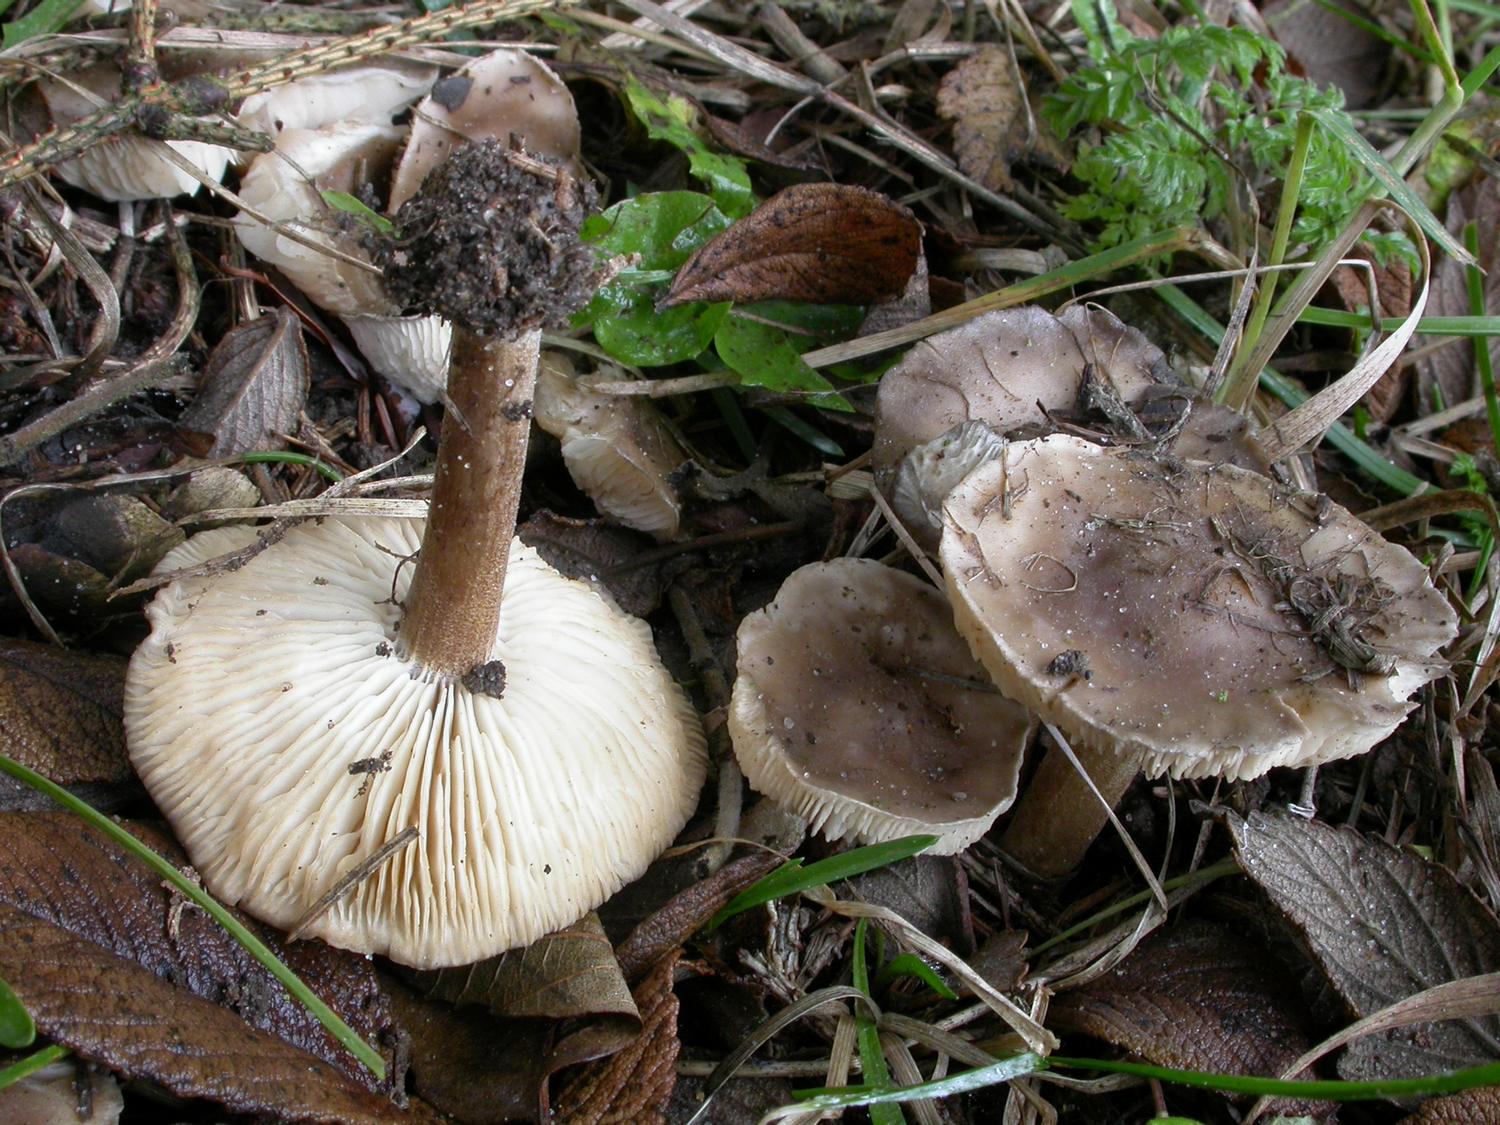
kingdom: Fungi
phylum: Basidiomycota
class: Agaricomycetes
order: Agaricales
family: Tricholomataceae
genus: Melanoleuca
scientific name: Melanoleuca polioleuca
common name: hvidbladet munkehat
